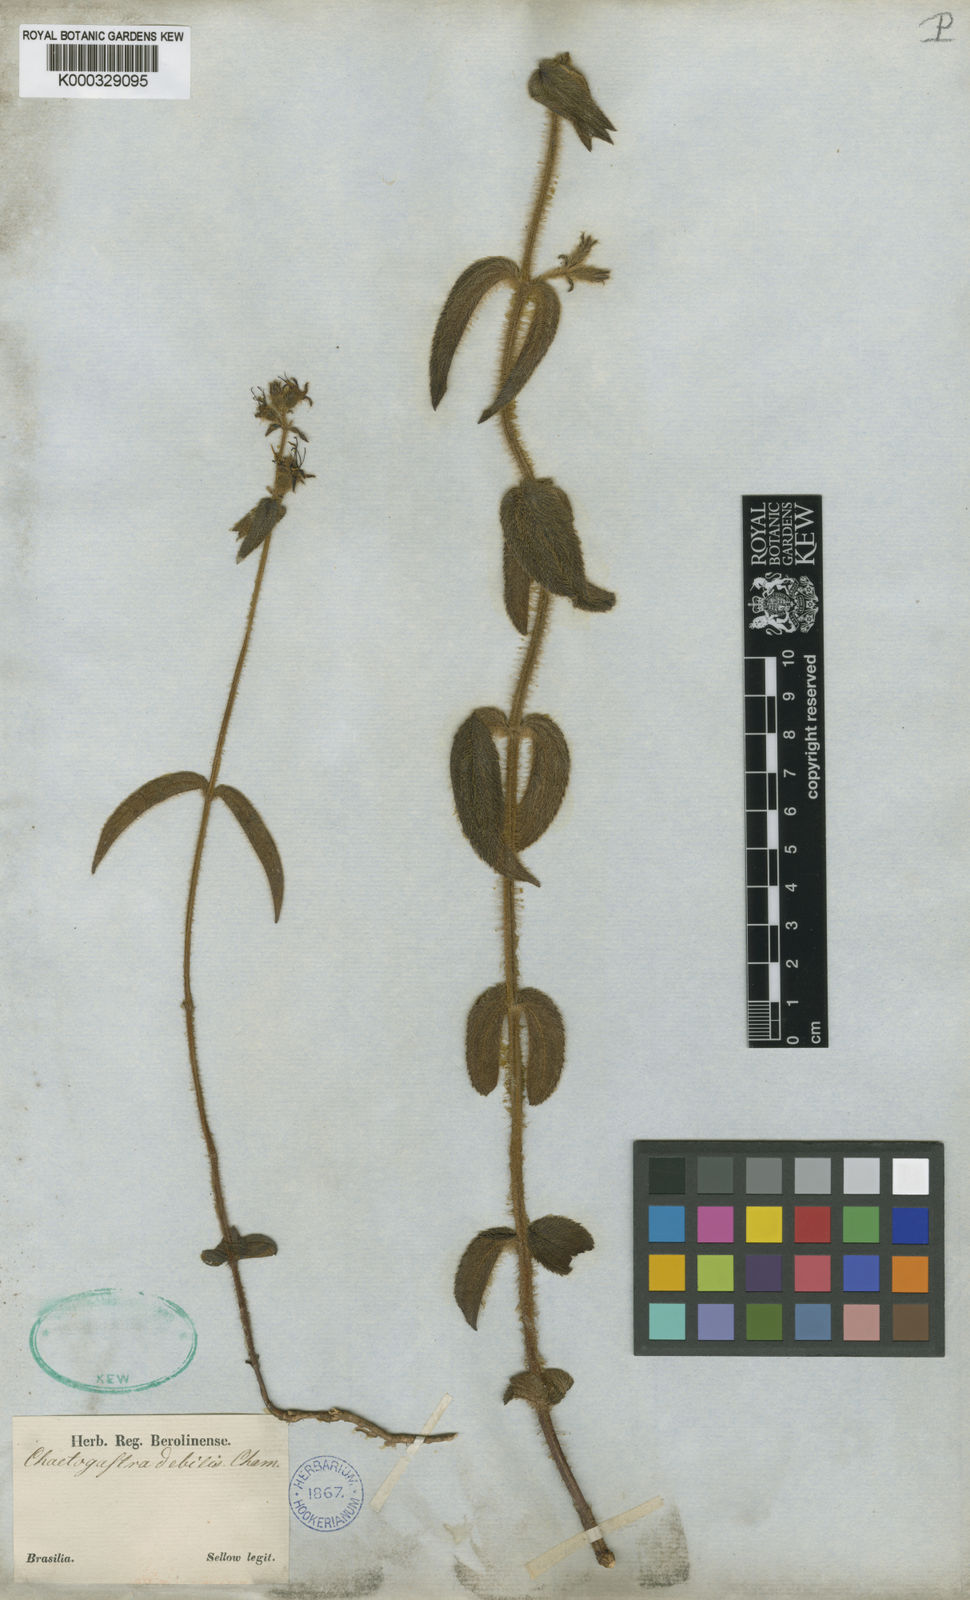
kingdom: Plantae
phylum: Tracheophyta
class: Magnoliopsida
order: Myrtales
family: Melastomataceae
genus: Chaetogastra
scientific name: Chaetogastra debilis
